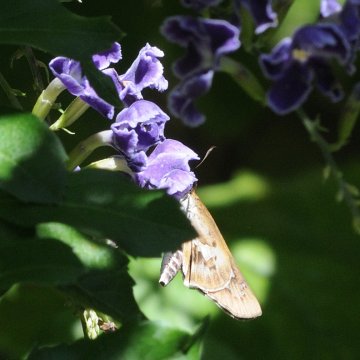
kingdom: Animalia
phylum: Arthropoda
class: Insecta
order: Lepidoptera
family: Hesperiidae
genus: Andronymus
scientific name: Andronymus neander
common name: Nomad Dart
